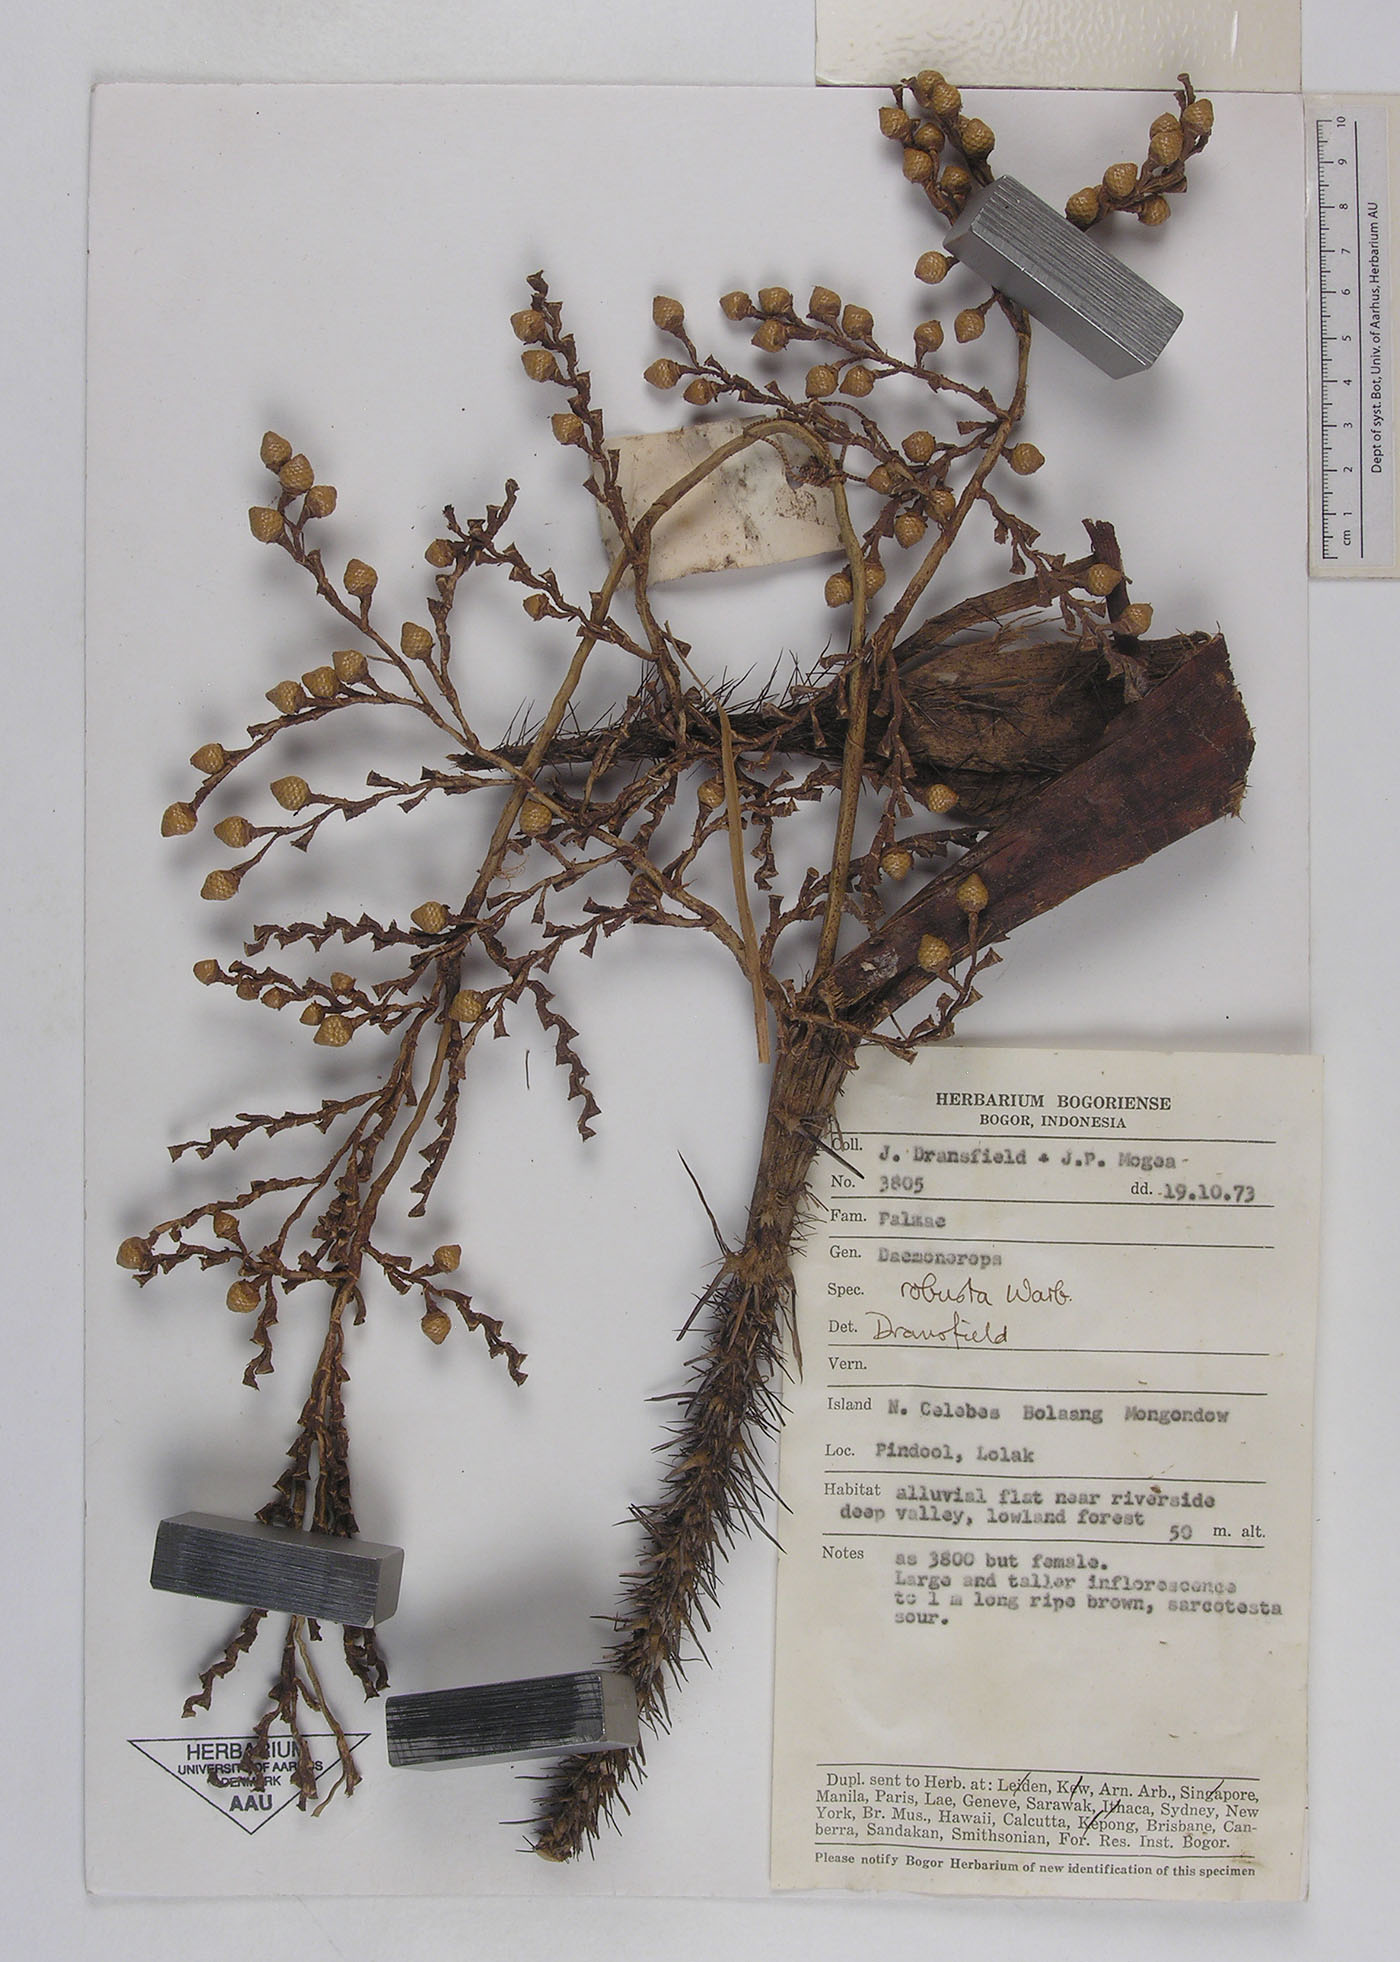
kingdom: Plantae
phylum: Tracheophyta
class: Liliopsida
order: Arecales
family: Arecaceae
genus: Calamus
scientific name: Calamus validus
